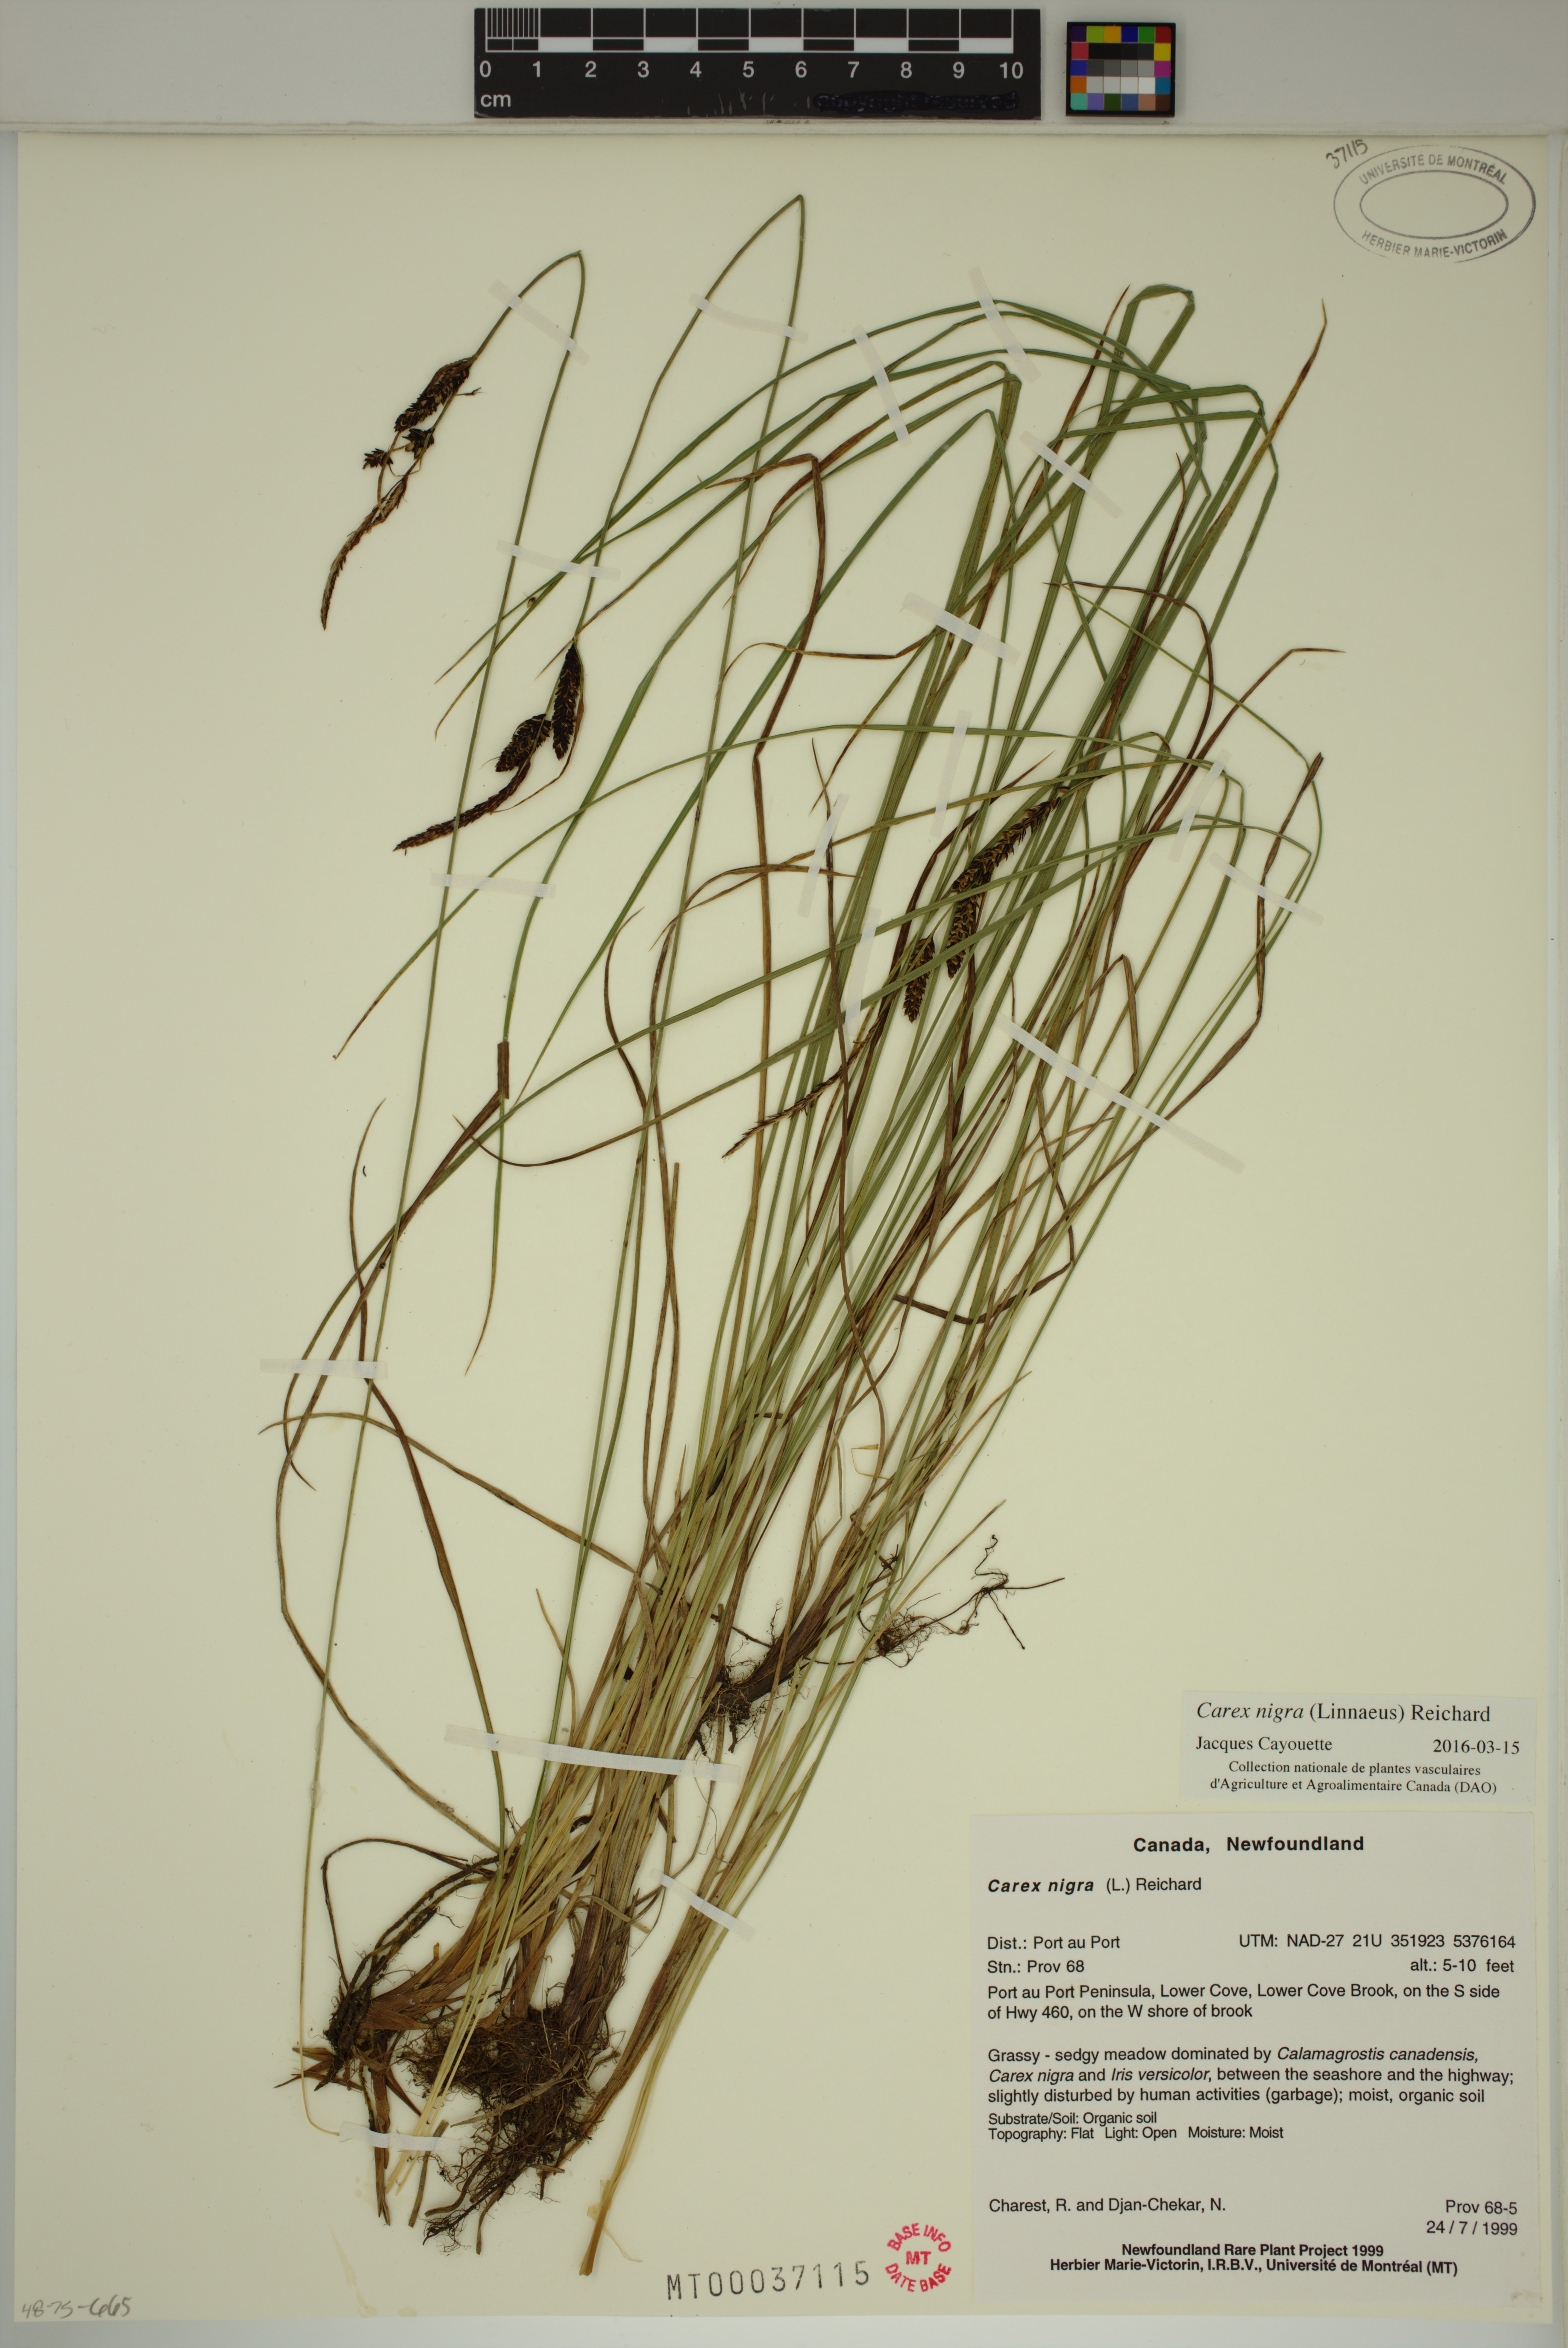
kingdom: Plantae
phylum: Tracheophyta
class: Liliopsida
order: Poales
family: Cyperaceae
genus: Carex
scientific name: Carex nigra
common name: Common sedge
